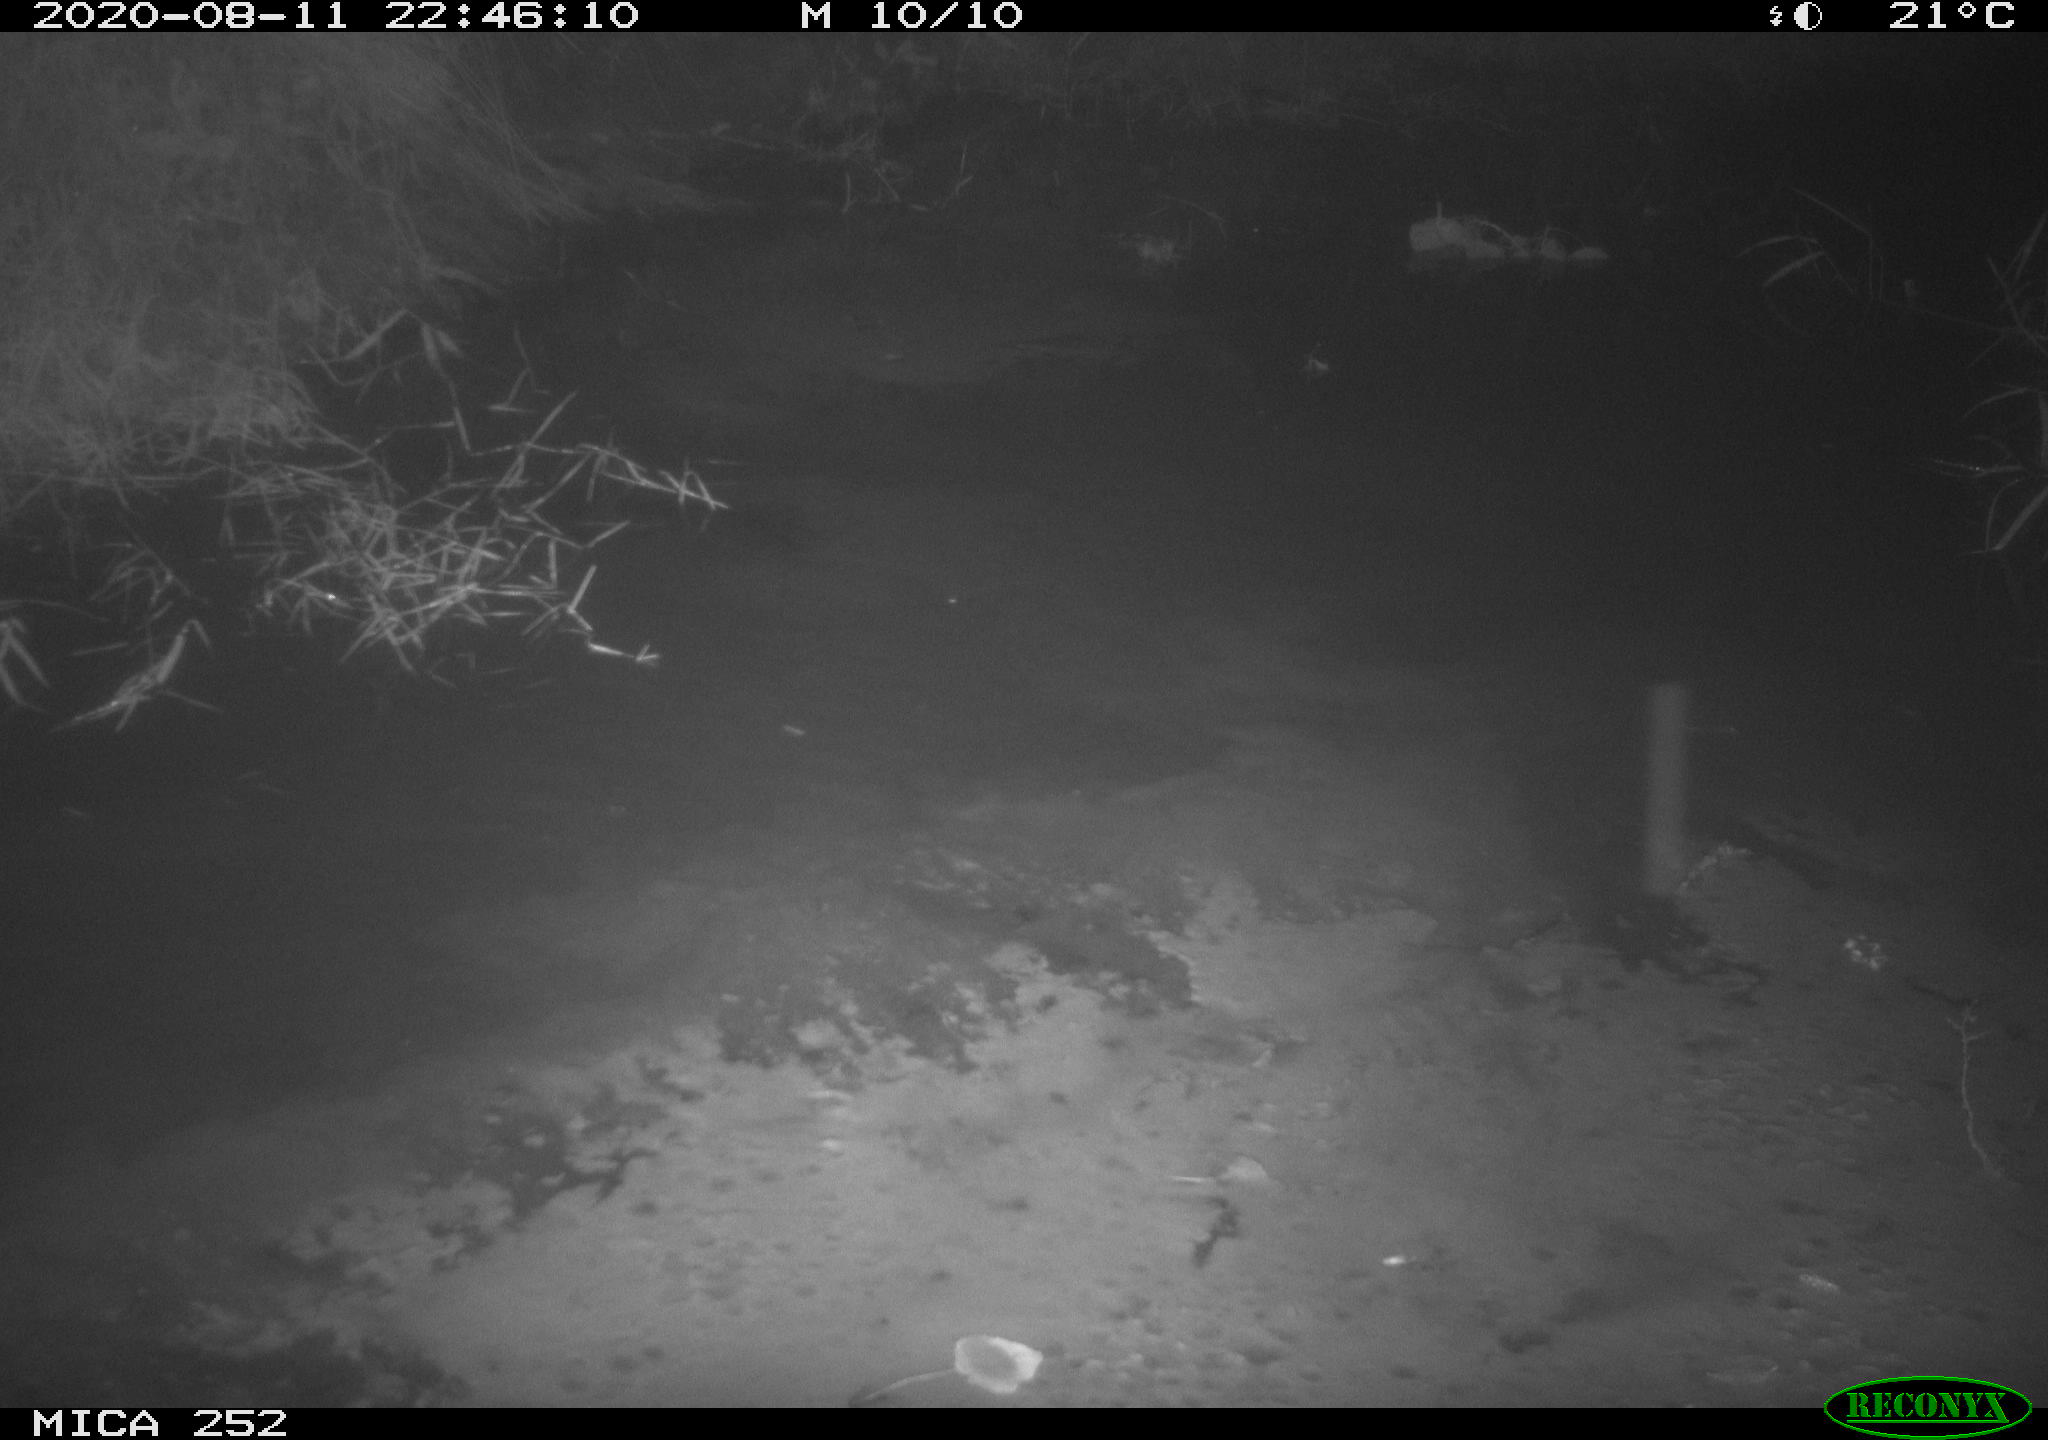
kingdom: Animalia
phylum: Chordata
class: Mammalia
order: Rodentia
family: Castoridae
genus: Castor
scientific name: Castor fiber
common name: Eurasian beaver
